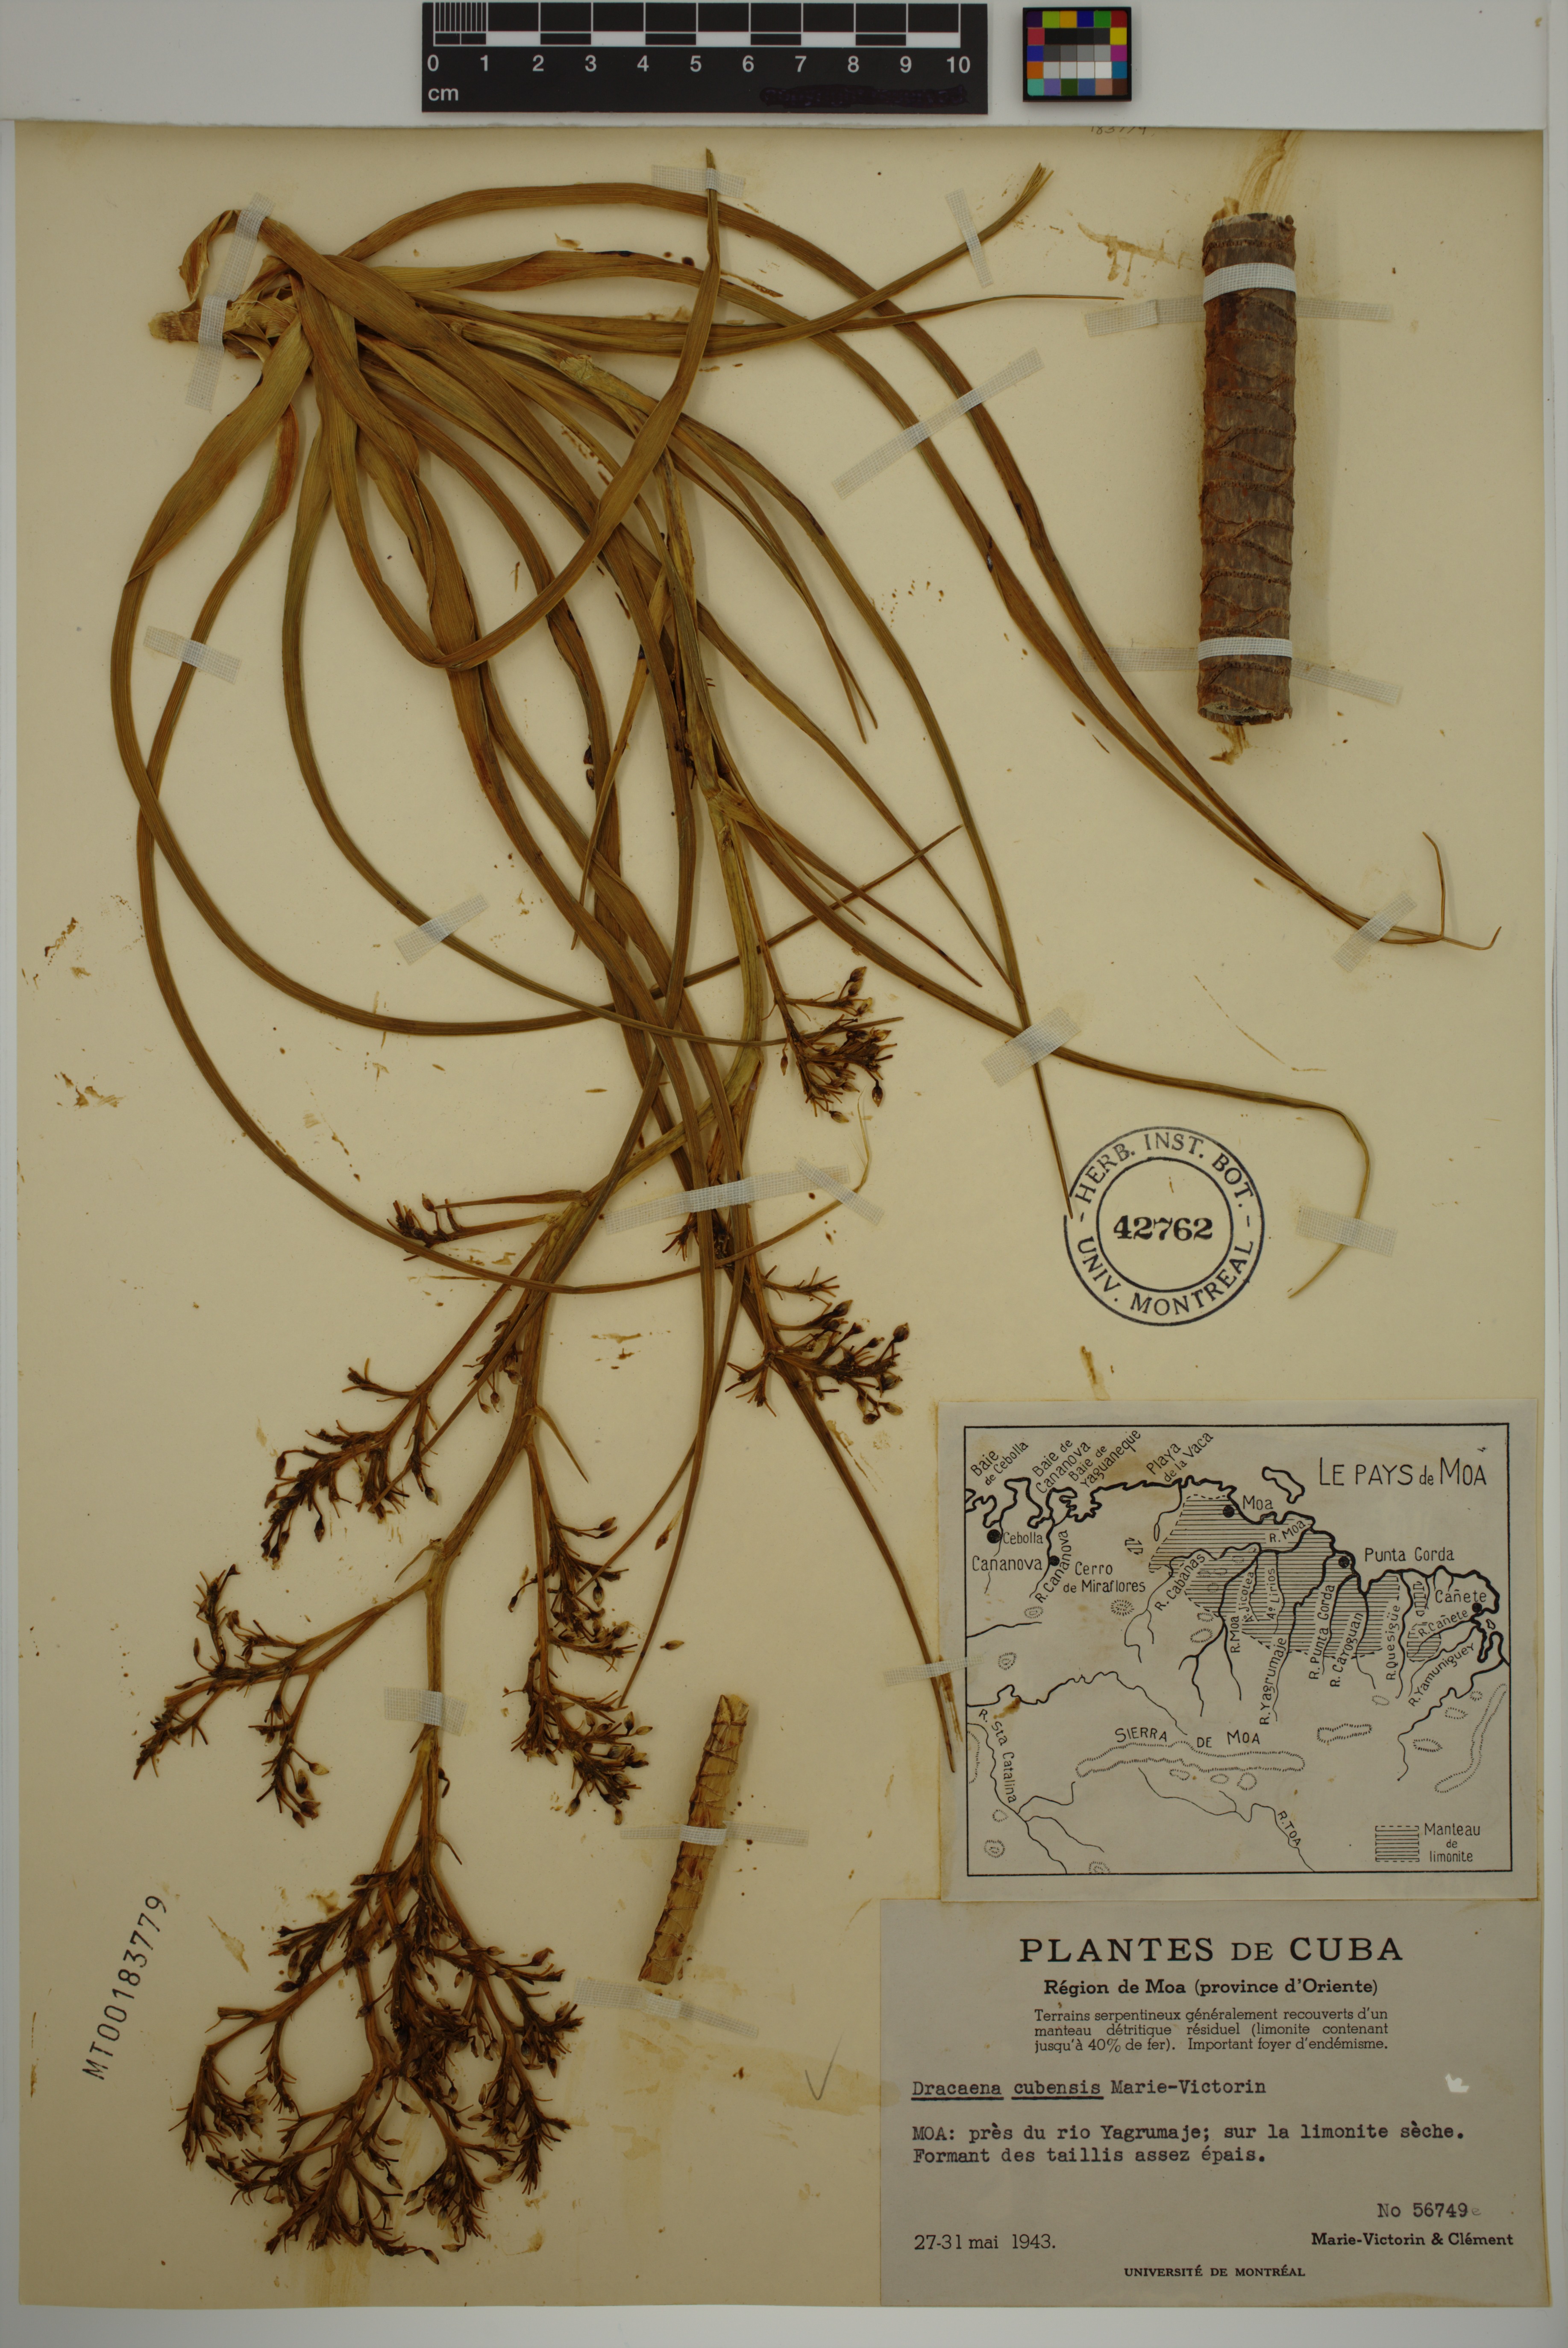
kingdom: Plantae
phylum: Tracheophyta
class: Liliopsida
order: Asparagales
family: Asparagaceae
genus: Dracaena
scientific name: Dracaena cubensis
